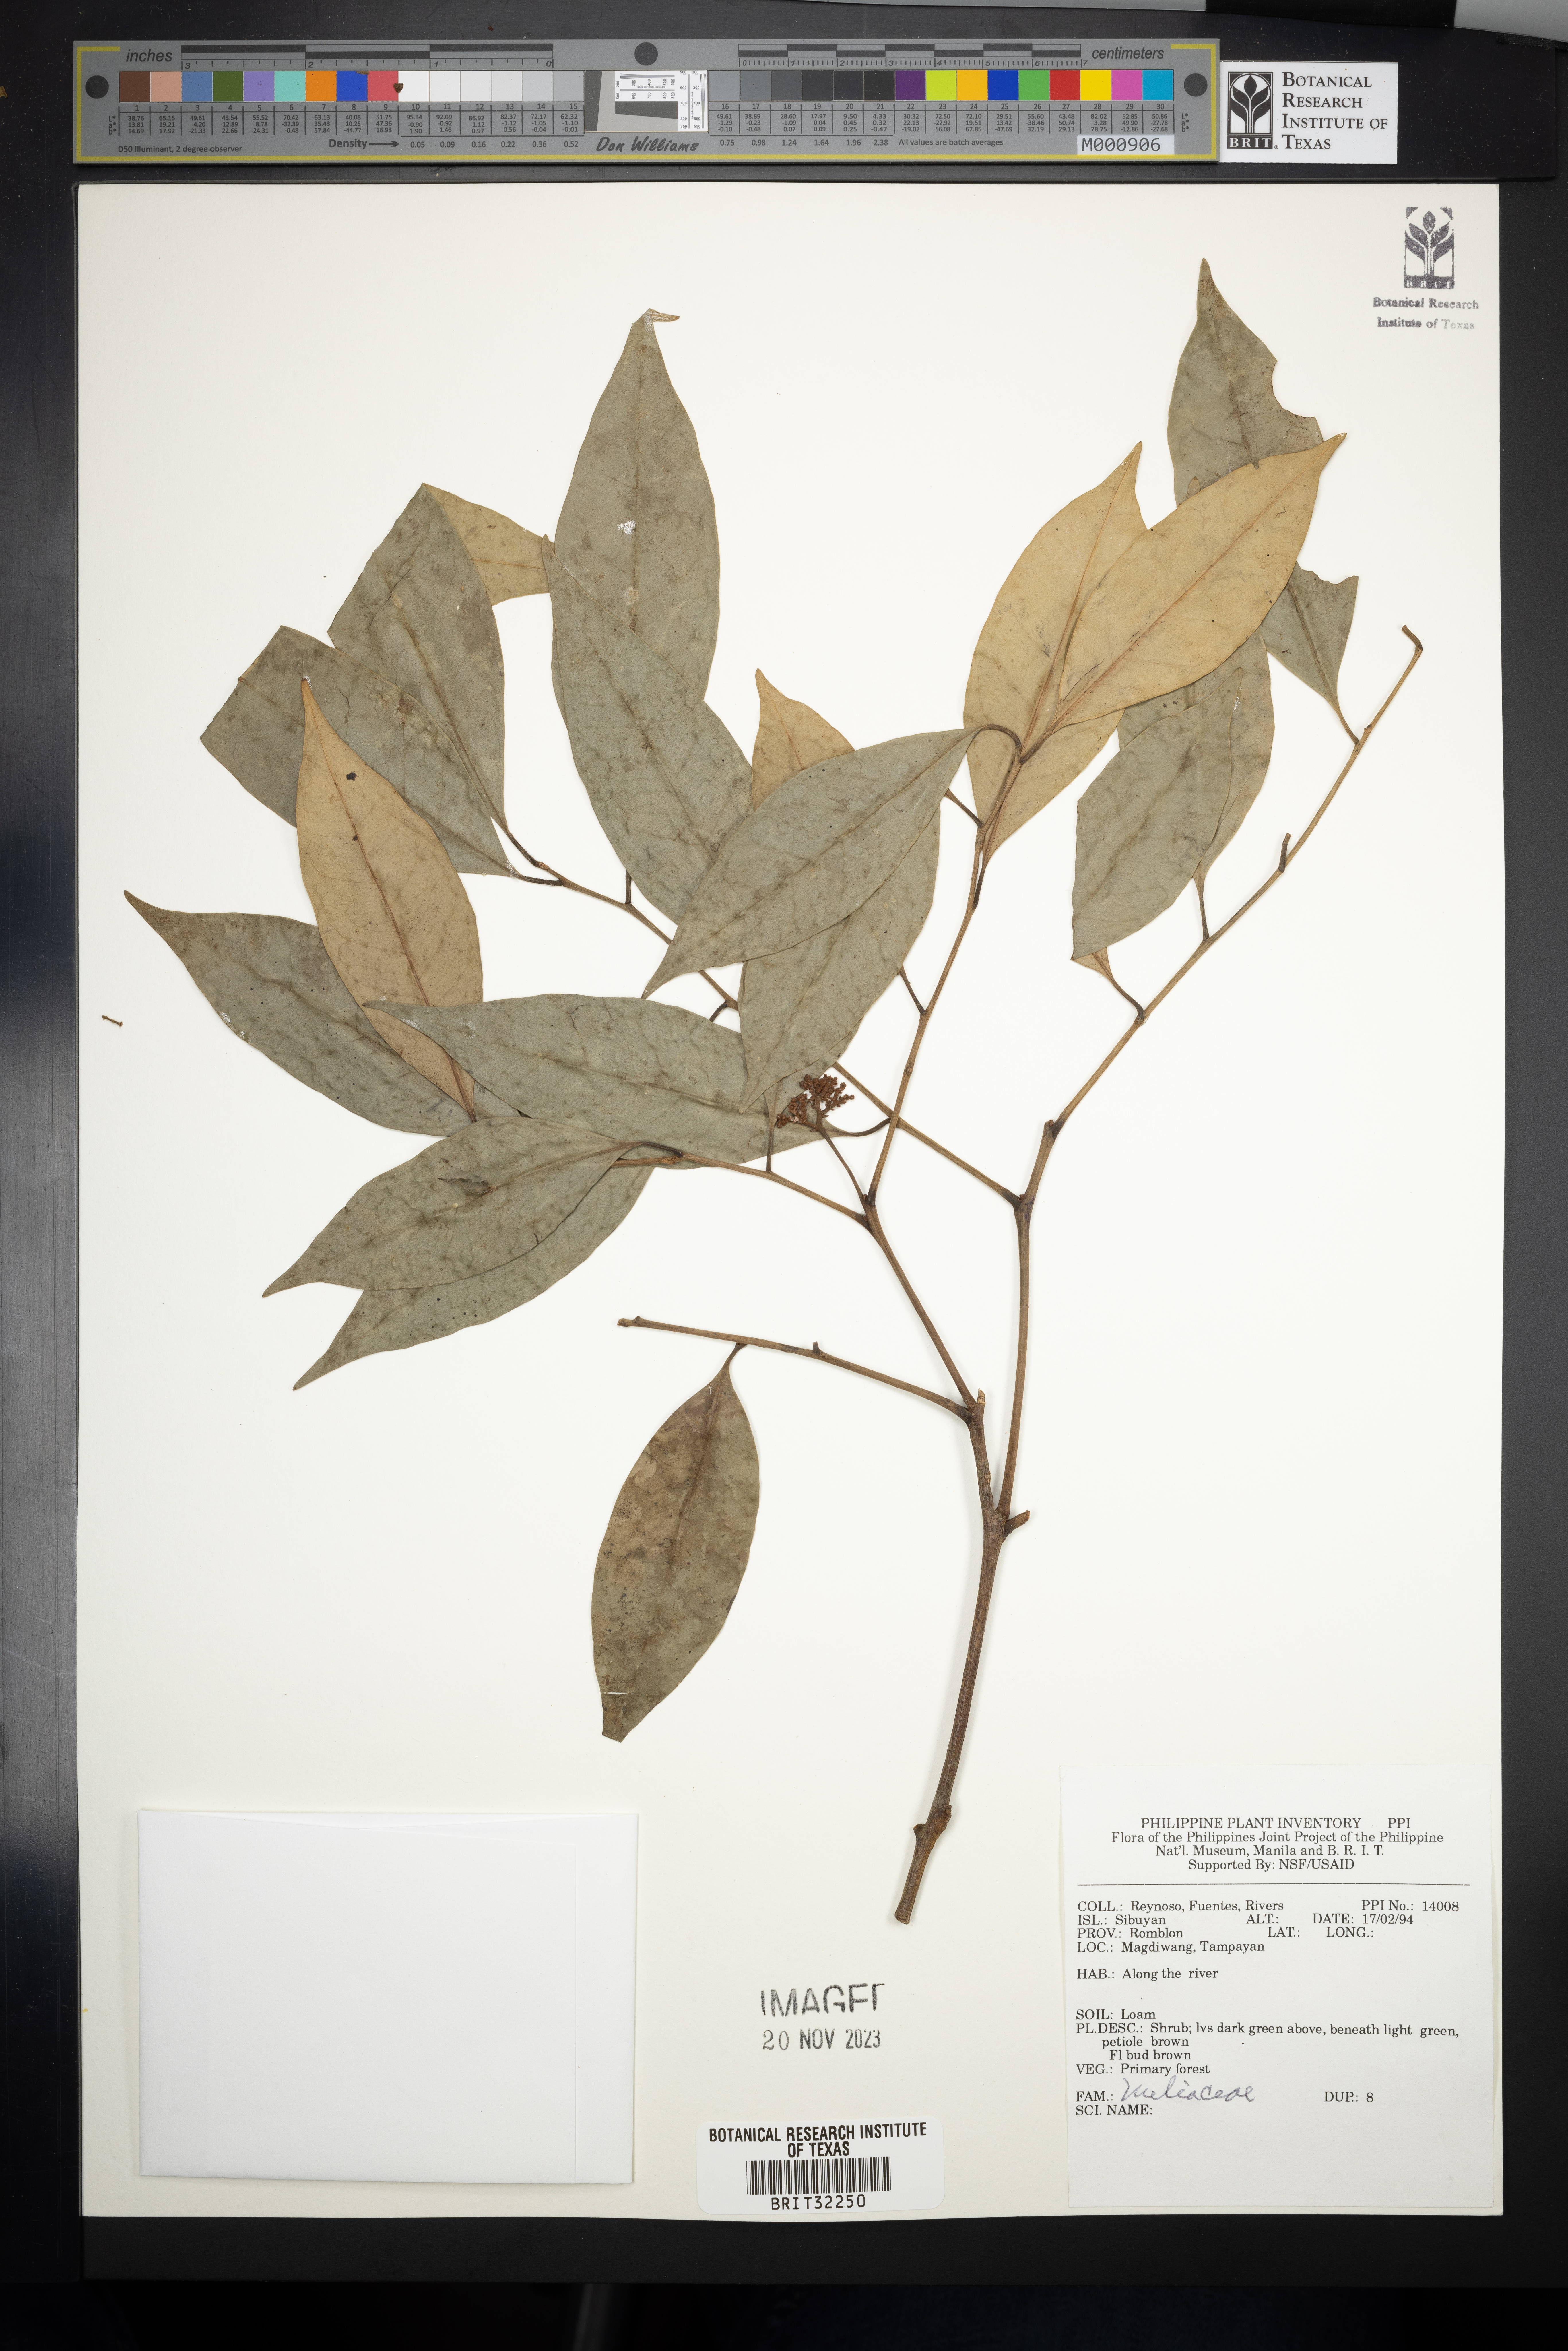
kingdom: Plantae
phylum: Tracheophyta
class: Magnoliopsida
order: Sapindales
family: Meliaceae
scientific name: Meliaceae
